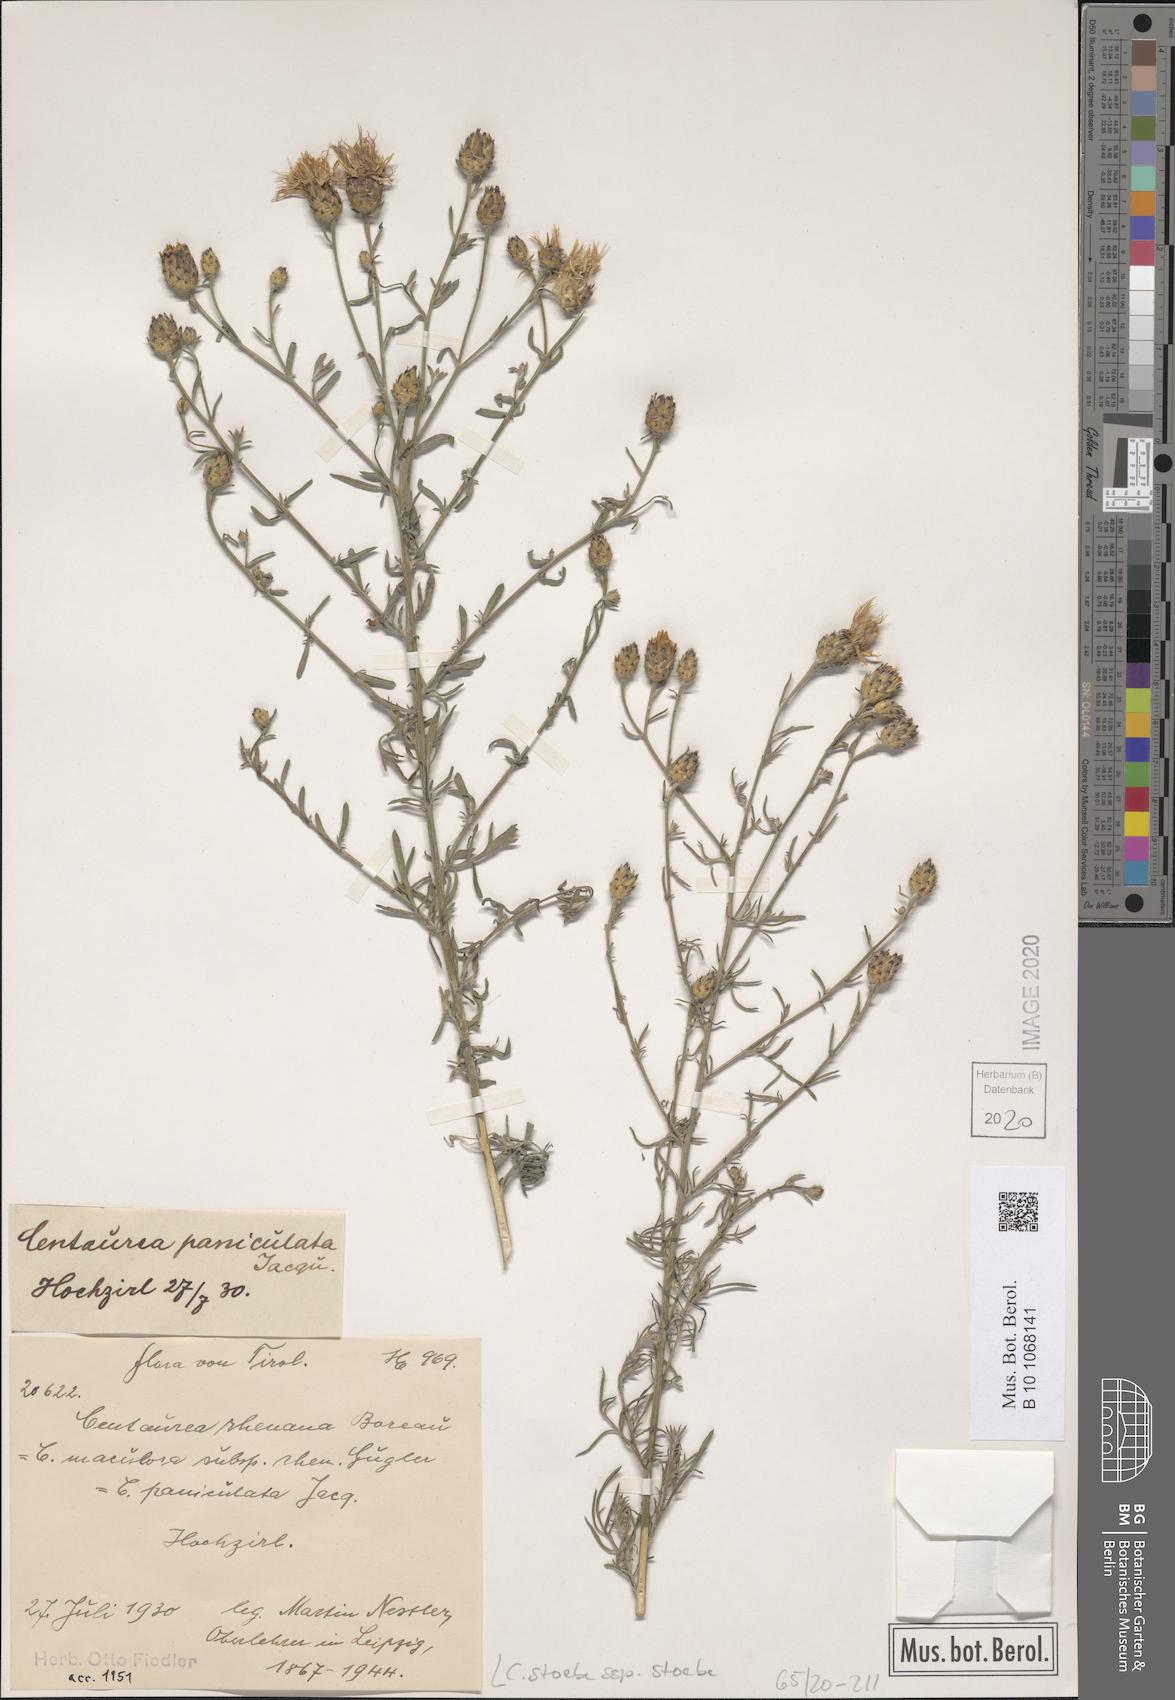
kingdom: Plantae
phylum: Tracheophyta
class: Magnoliopsida
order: Asterales
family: Asteraceae
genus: Centaurea
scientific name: Centaurea stoebe
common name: Spotted knapweed
